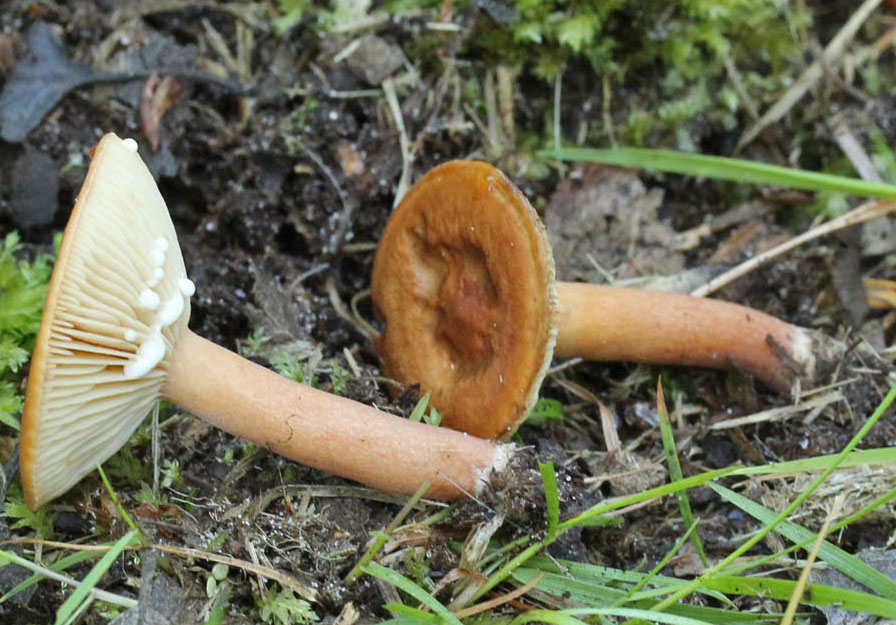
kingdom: Fungi
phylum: Basidiomycota
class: Agaricomycetes
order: Russulales
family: Russulaceae
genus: Lactarius
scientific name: Lactarius tabidus
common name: rynket mælkehat
